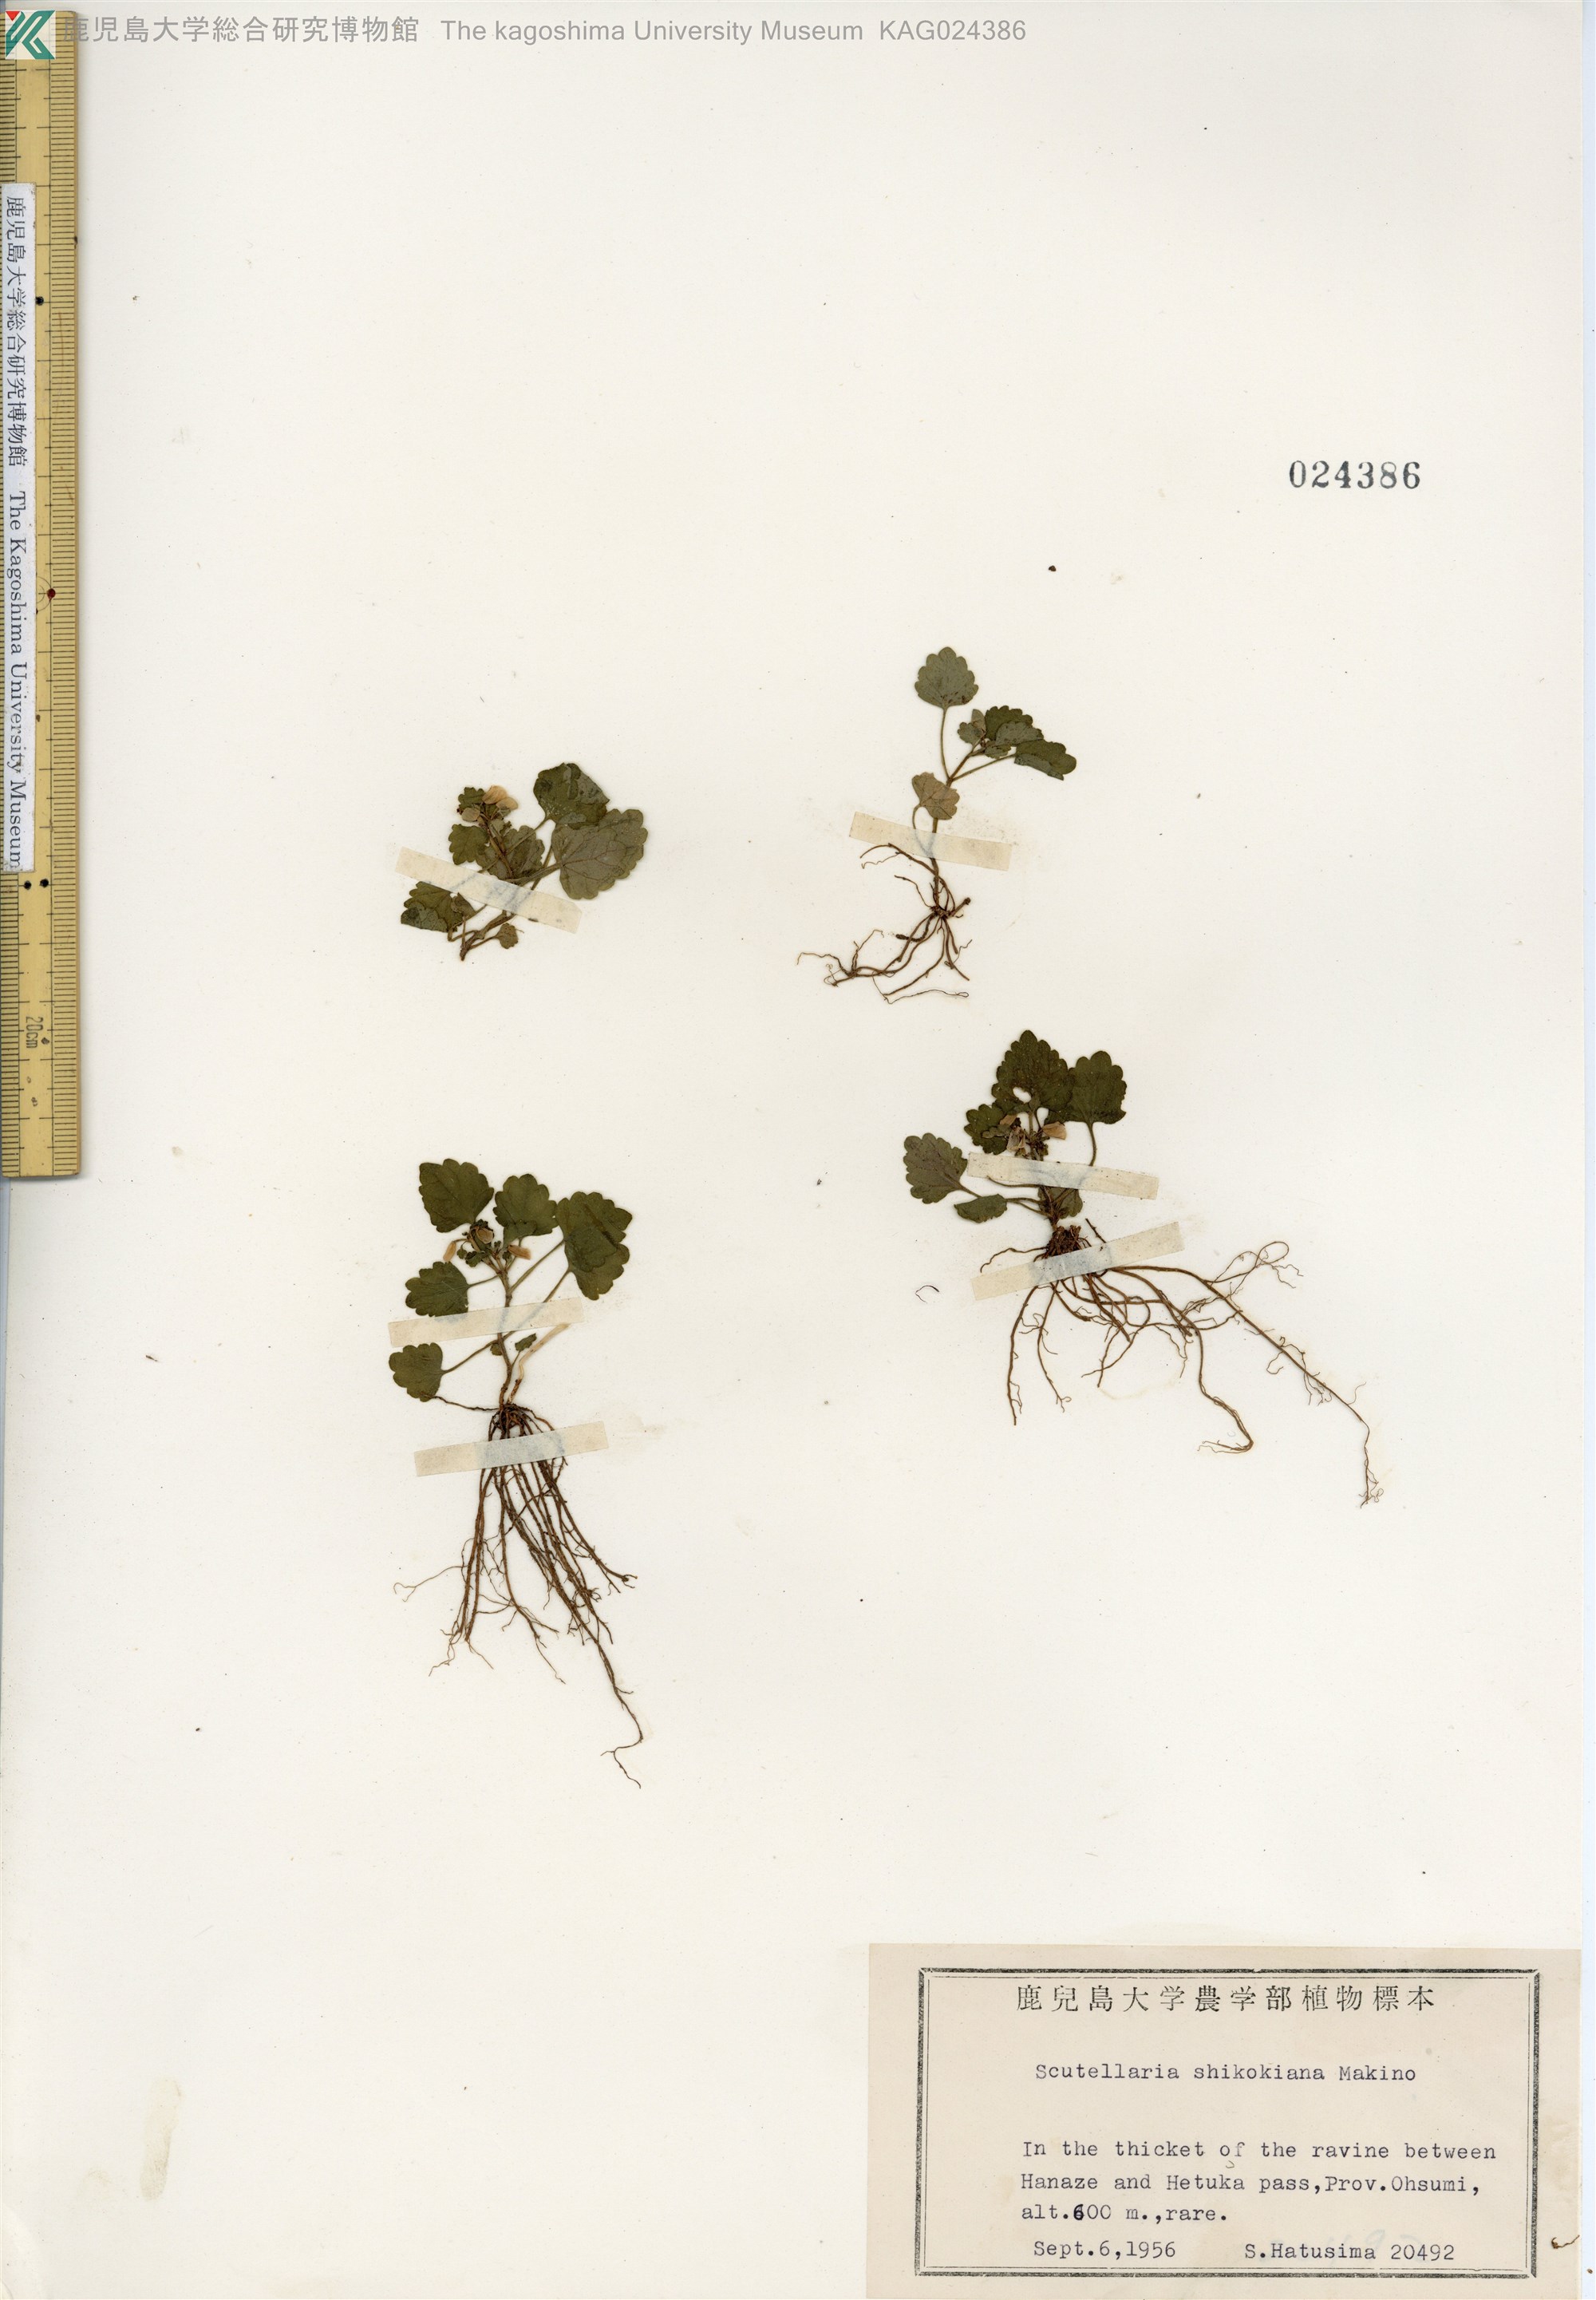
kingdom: Plantae
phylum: Tracheophyta
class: Magnoliopsida
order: Lamiales
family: Lamiaceae
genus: Scutellaria
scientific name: Scutellaria shikokiana
